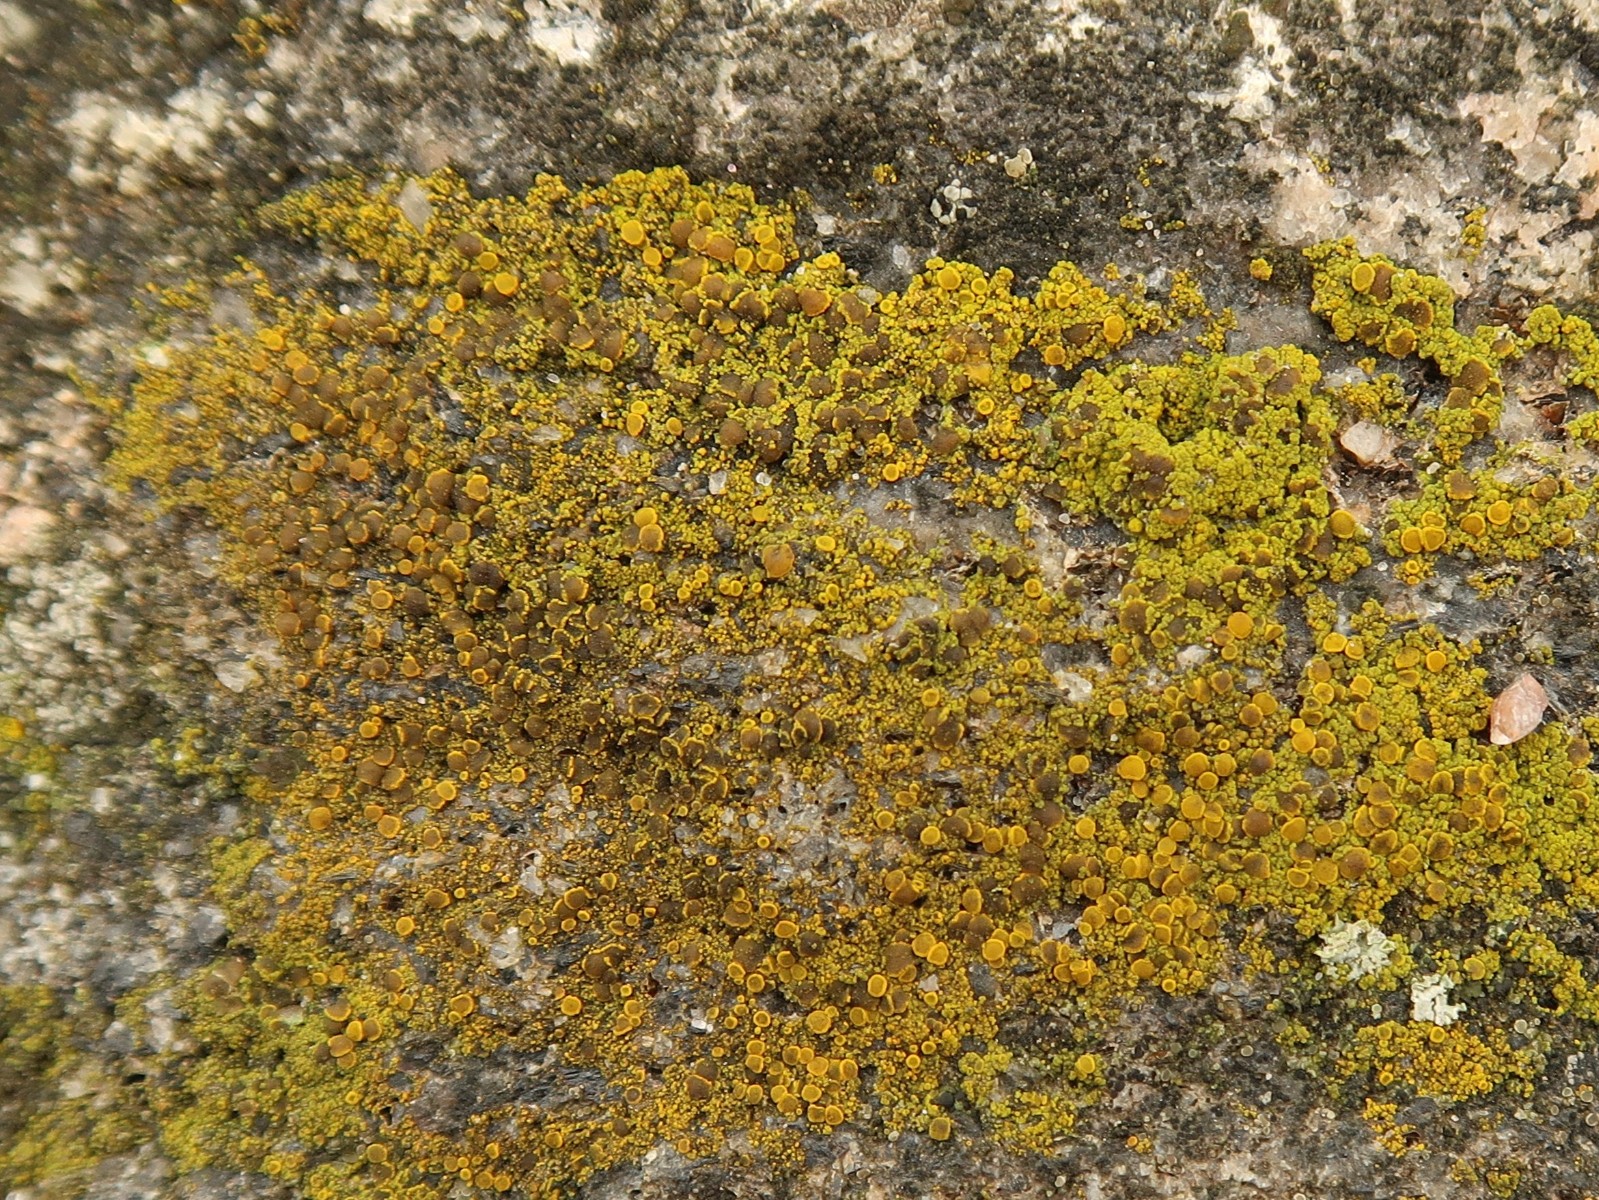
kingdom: Fungi
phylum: Ascomycota
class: Candelariomycetes
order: Candelariales
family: Candelariaceae
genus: Candelariella
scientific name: Candelariella vitellina
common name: almindelig æggeblommelav
